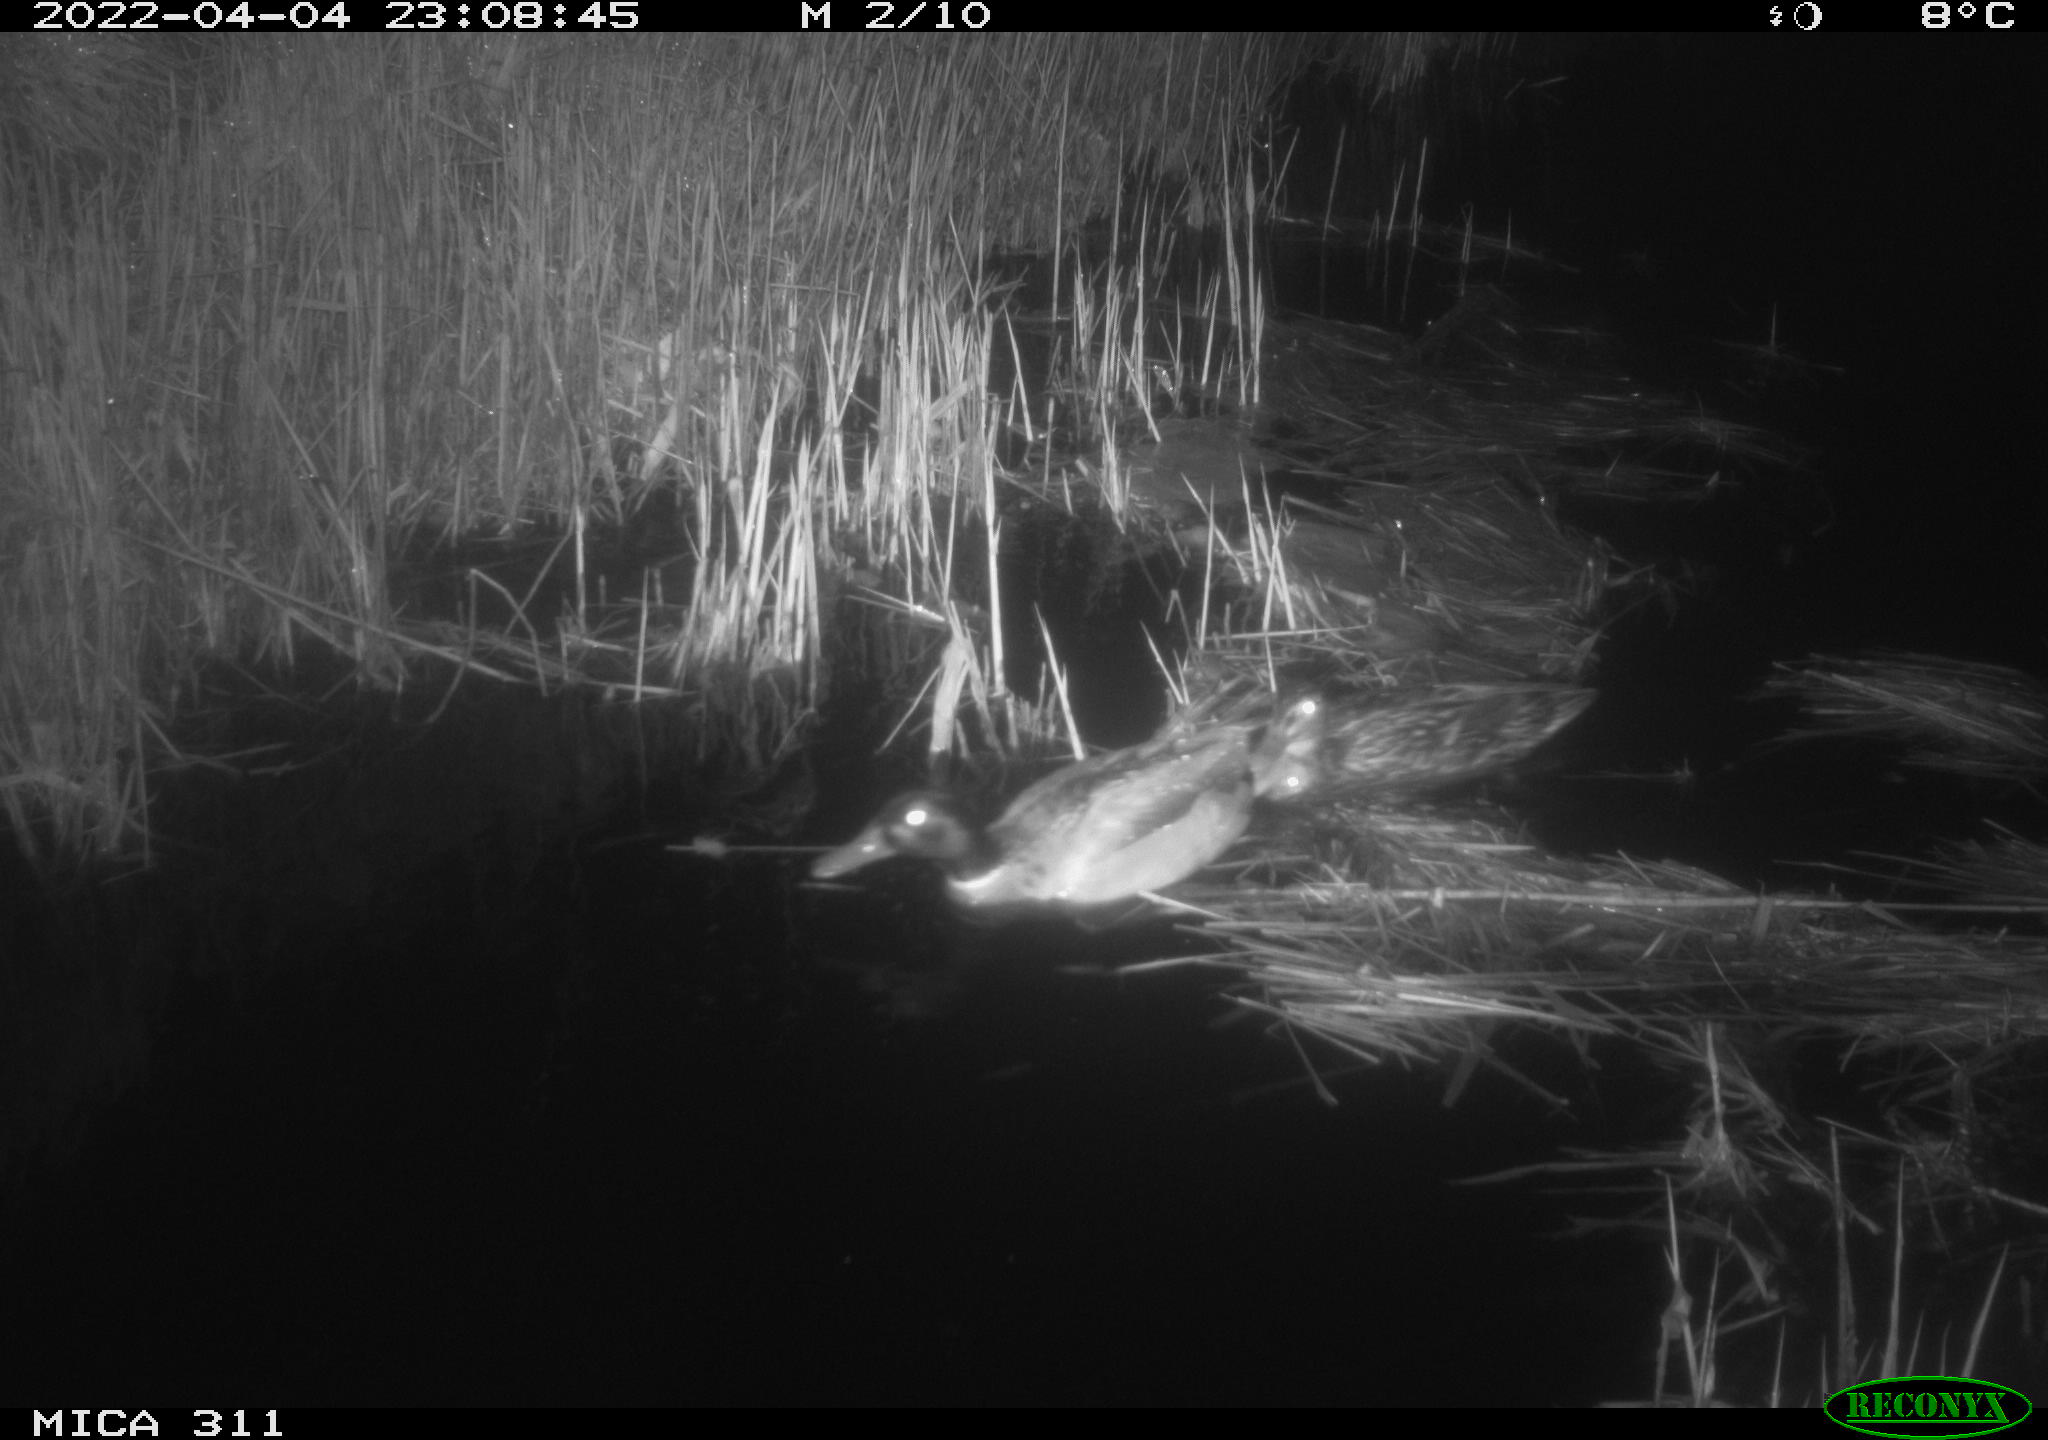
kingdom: Animalia
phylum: Chordata
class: Aves
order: Anseriformes
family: Anatidae
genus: Anas
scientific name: Anas
